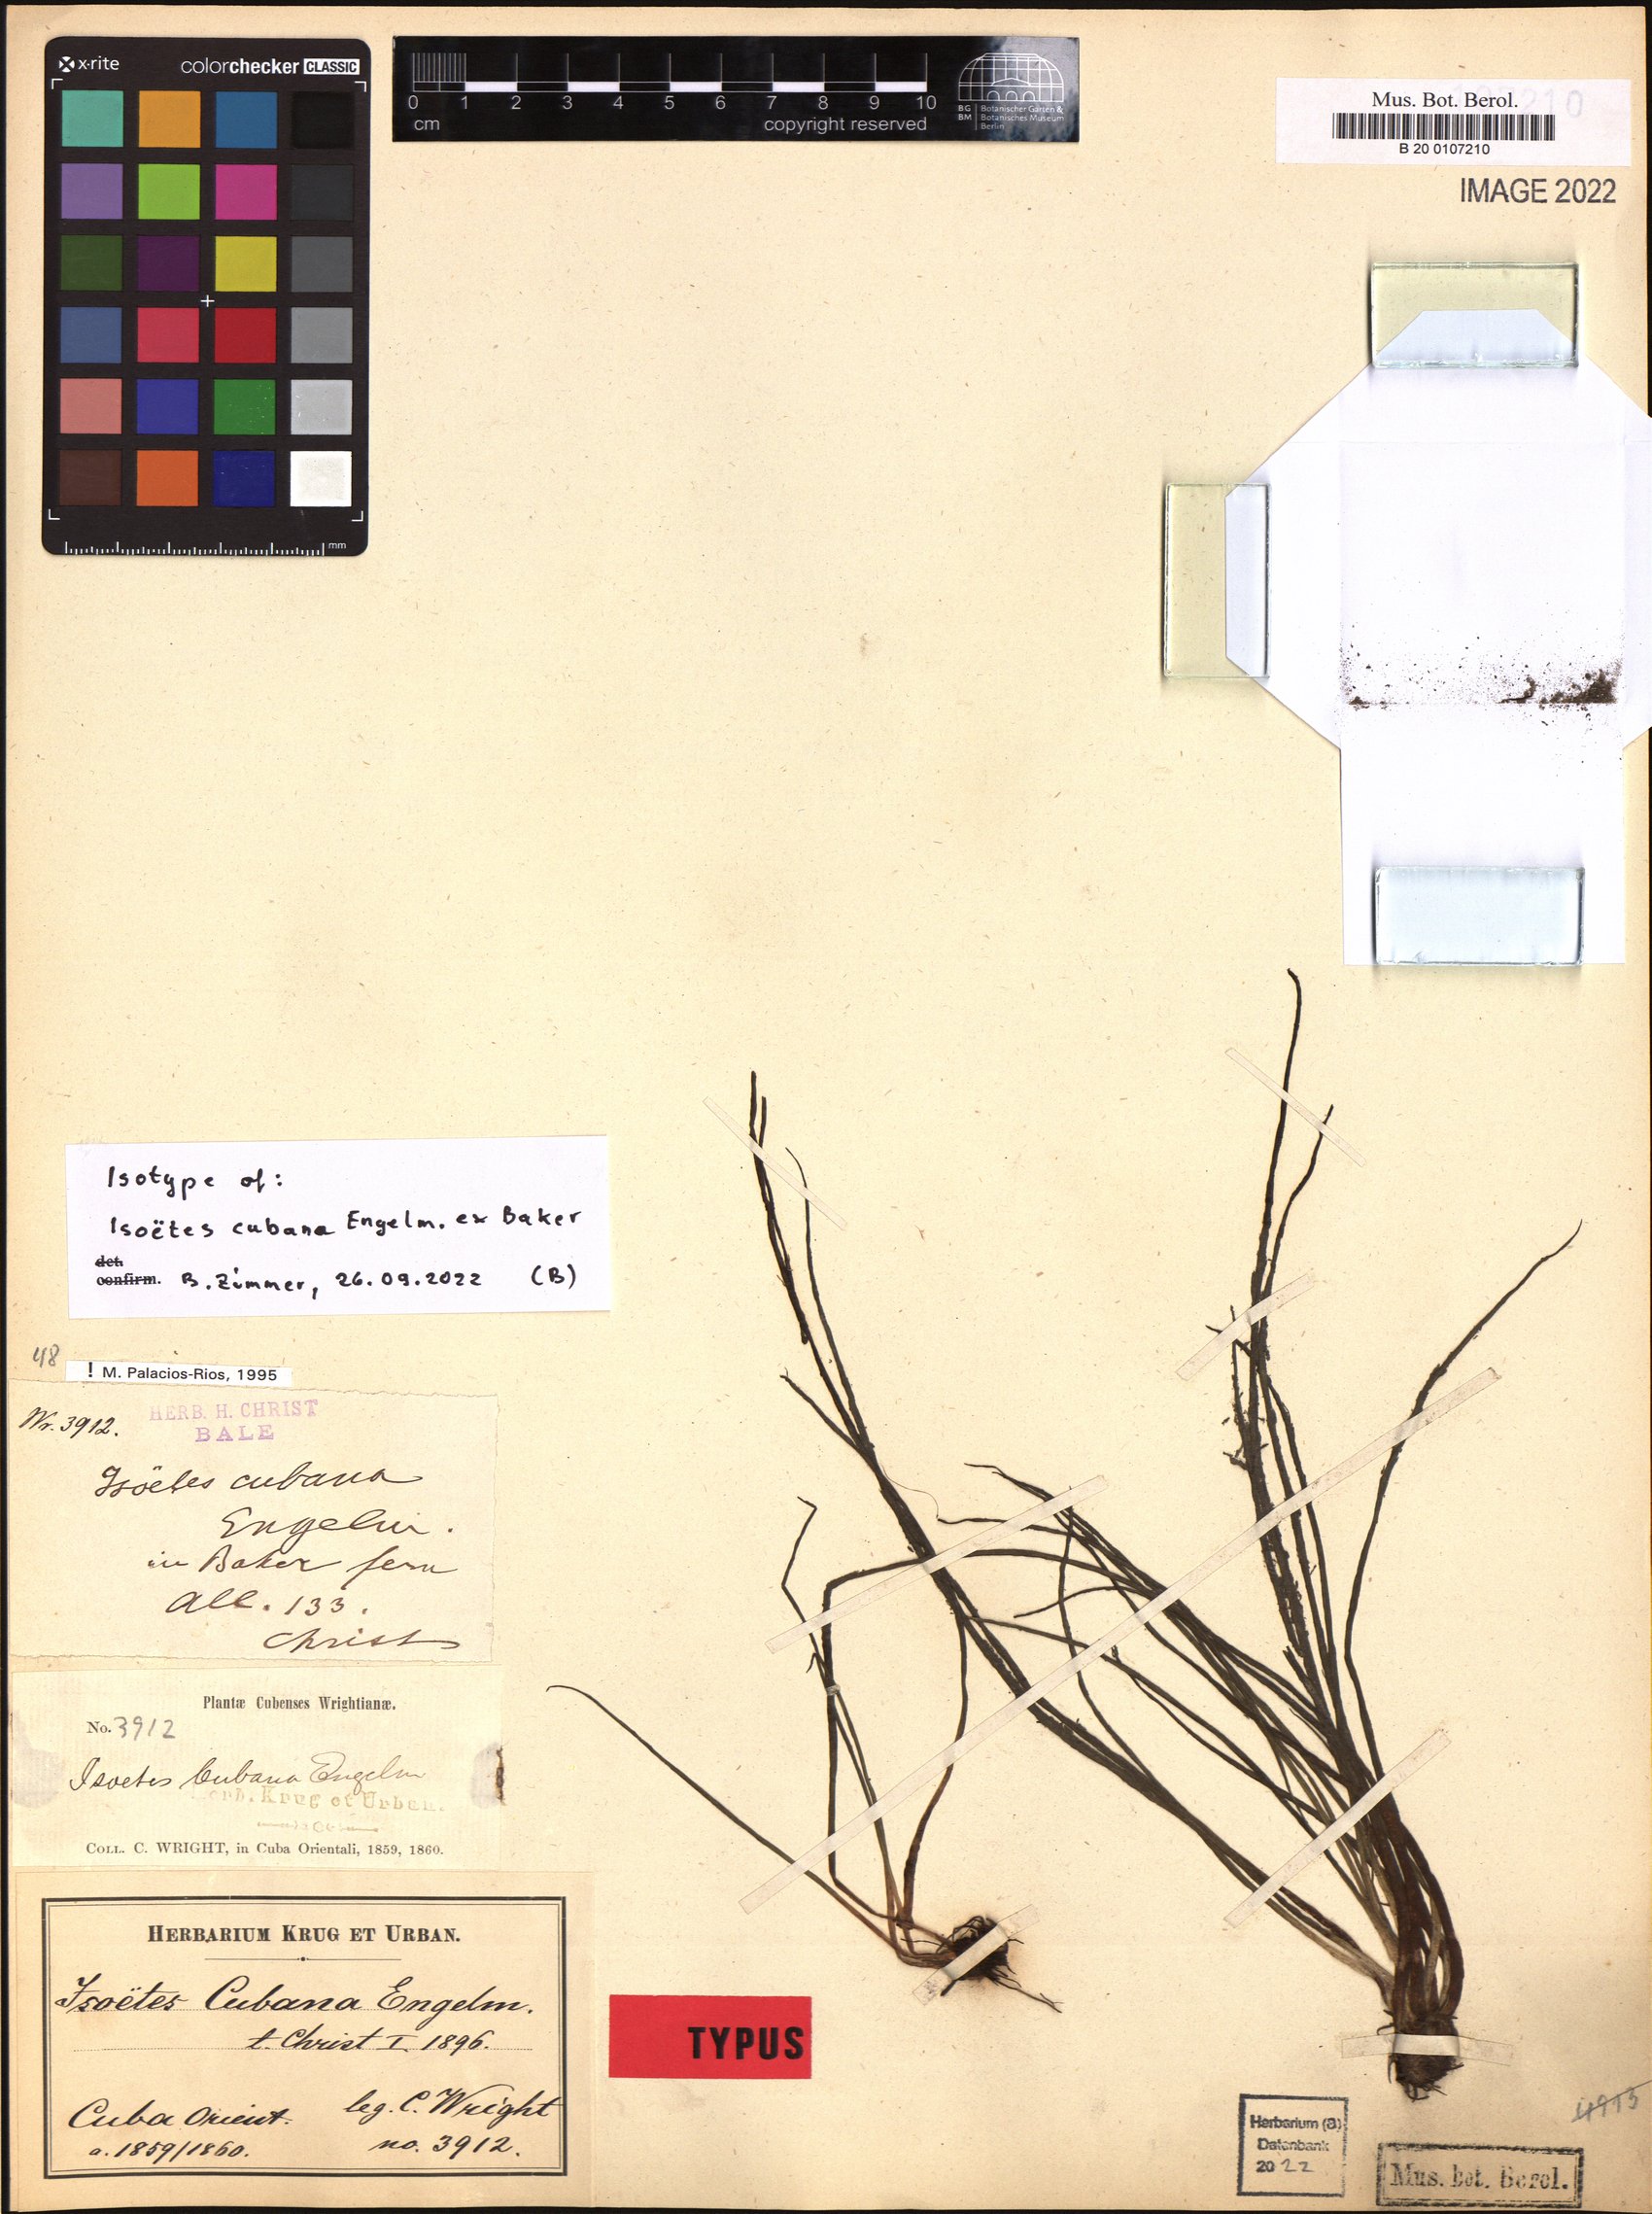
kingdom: Plantae
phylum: Tracheophyta
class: Lycopodiopsida
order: Isoetales
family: Isoetaceae
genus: Isoetes
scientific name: Isoetes cubana
